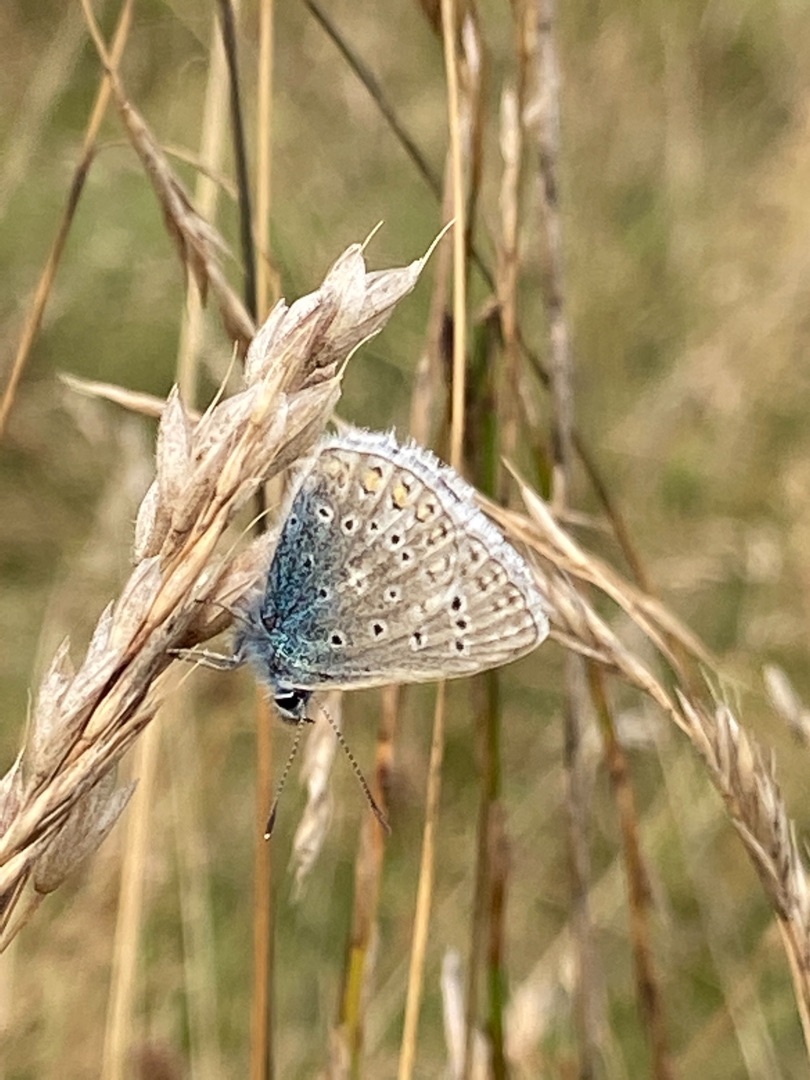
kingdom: Animalia
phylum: Arthropoda
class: Insecta
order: Lepidoptera
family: Lycaenidae
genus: Polyommatus
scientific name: Polyommatus icarus
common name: Almindelig blåfugl
